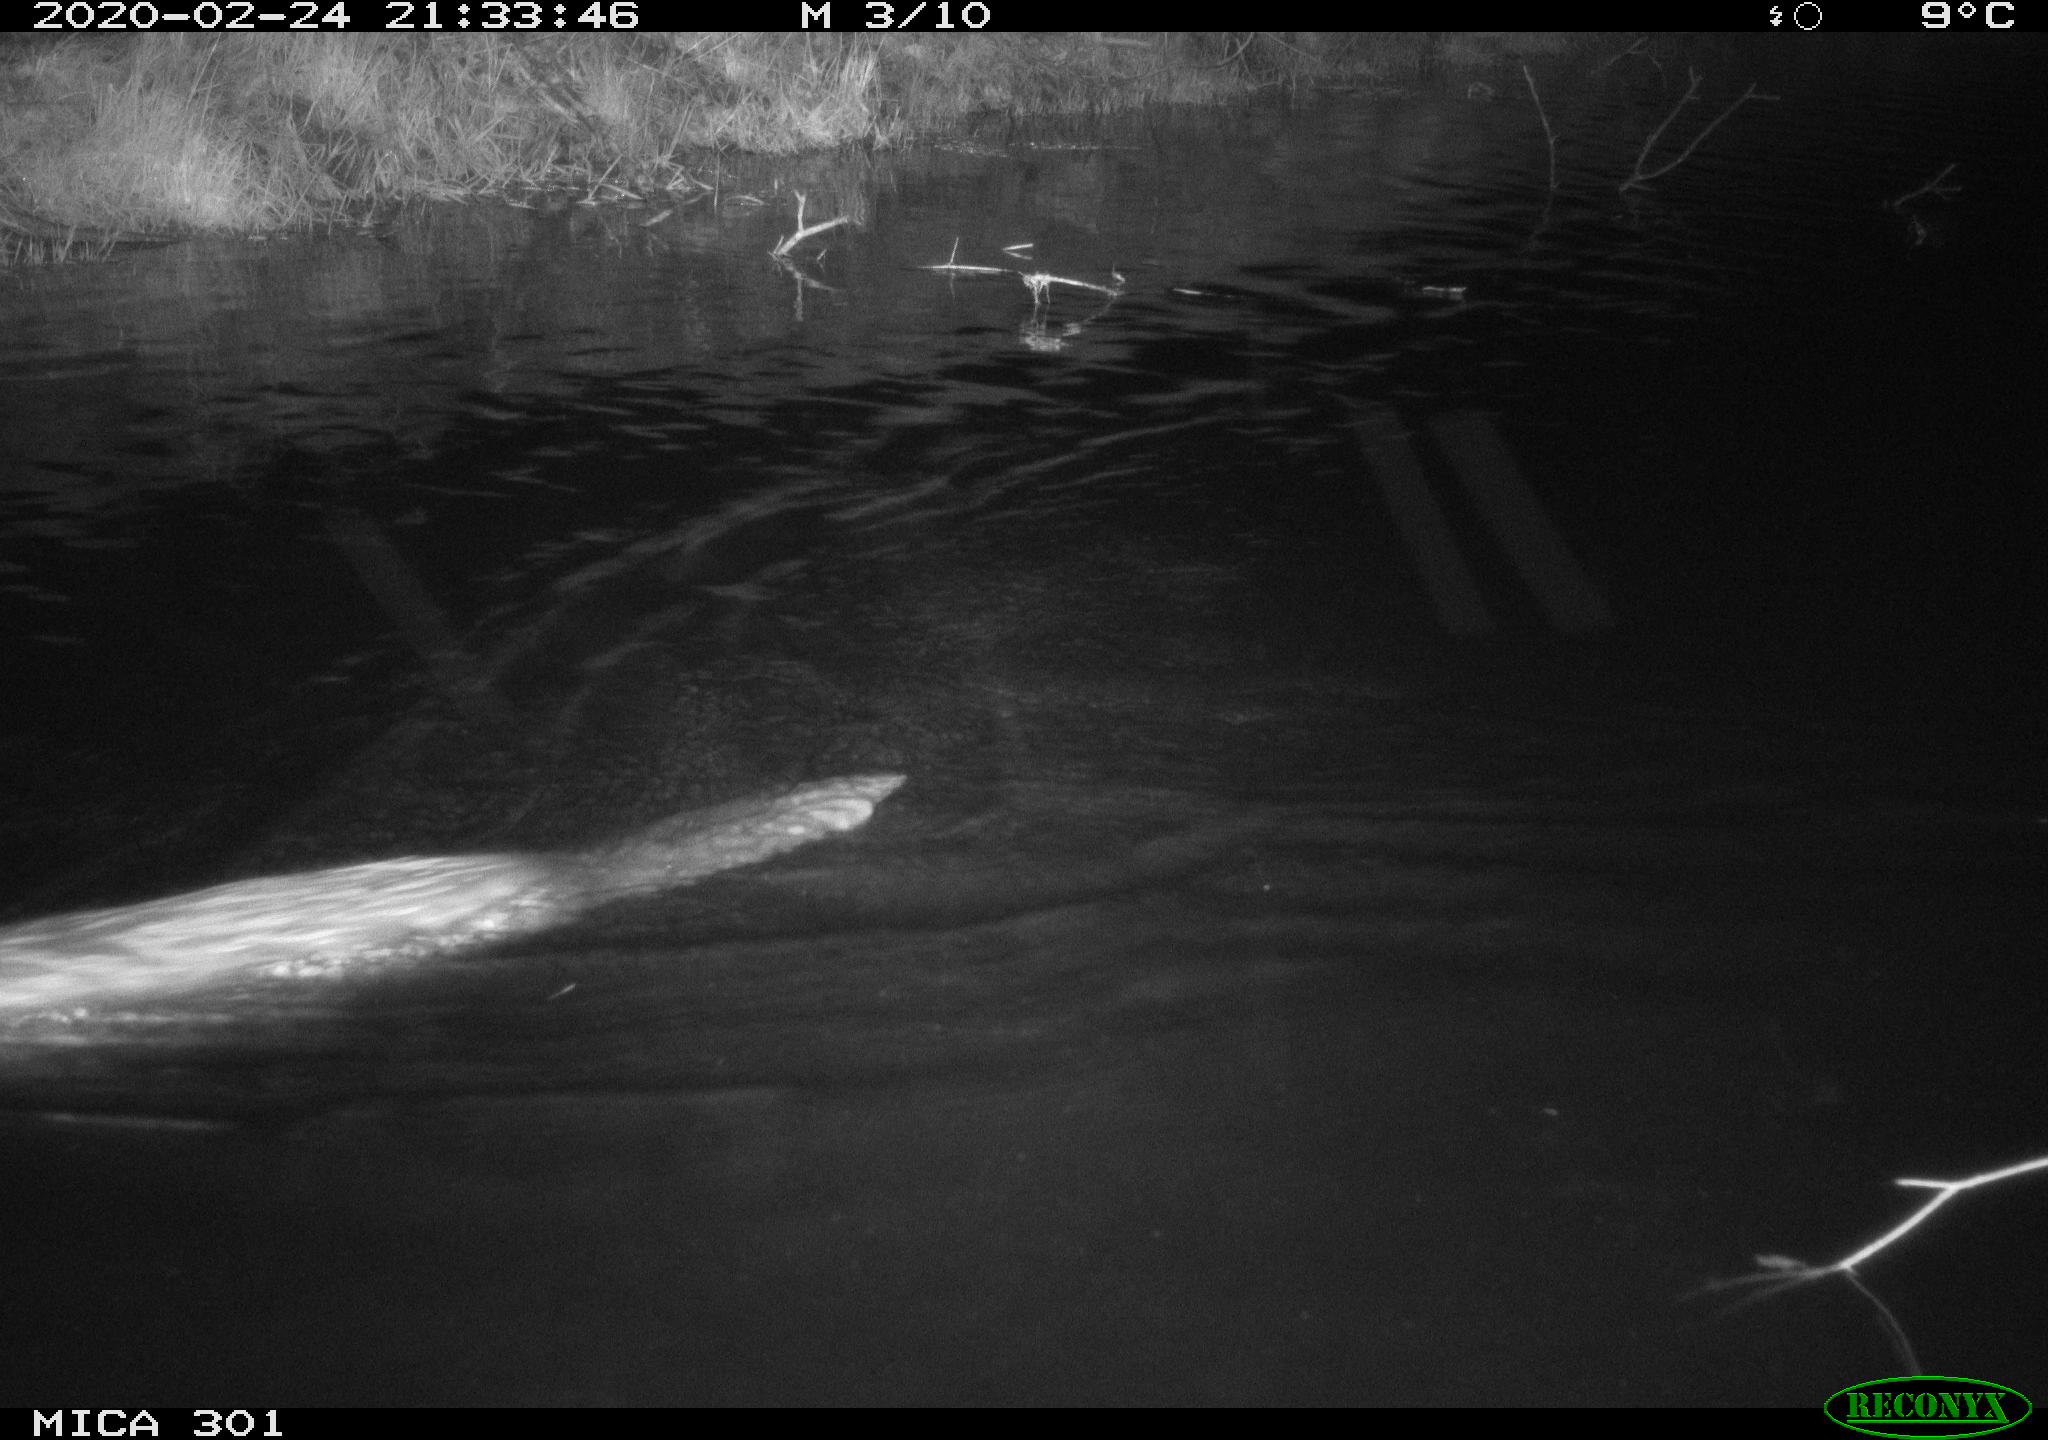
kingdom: Animalia
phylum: Chordata
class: Mammalia
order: Rodentia
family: Castoridae
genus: Castor
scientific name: Castor fiber
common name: Eurasian beaver
